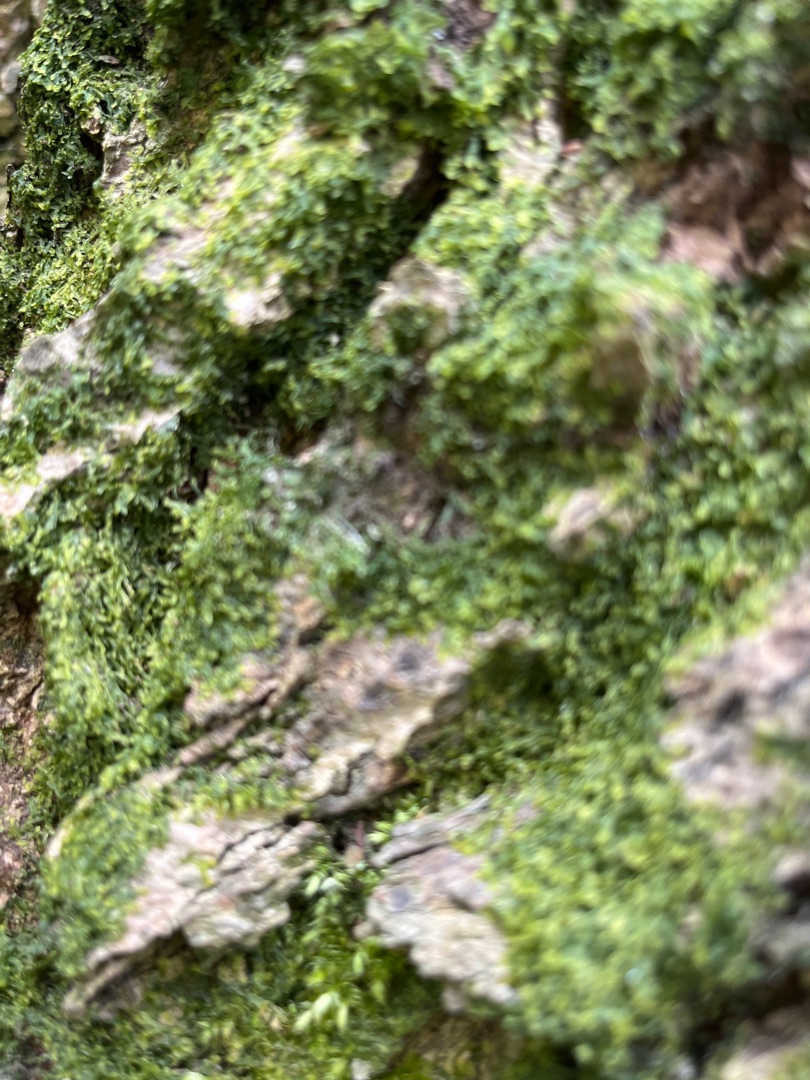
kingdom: Plantae
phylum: Marchantiophyta
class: Jungermanniopsida
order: Metzgeriales
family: Metzgeriaceae
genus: Metzgeria
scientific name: Metzgeria furcata
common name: Almindelig gaffelløv
